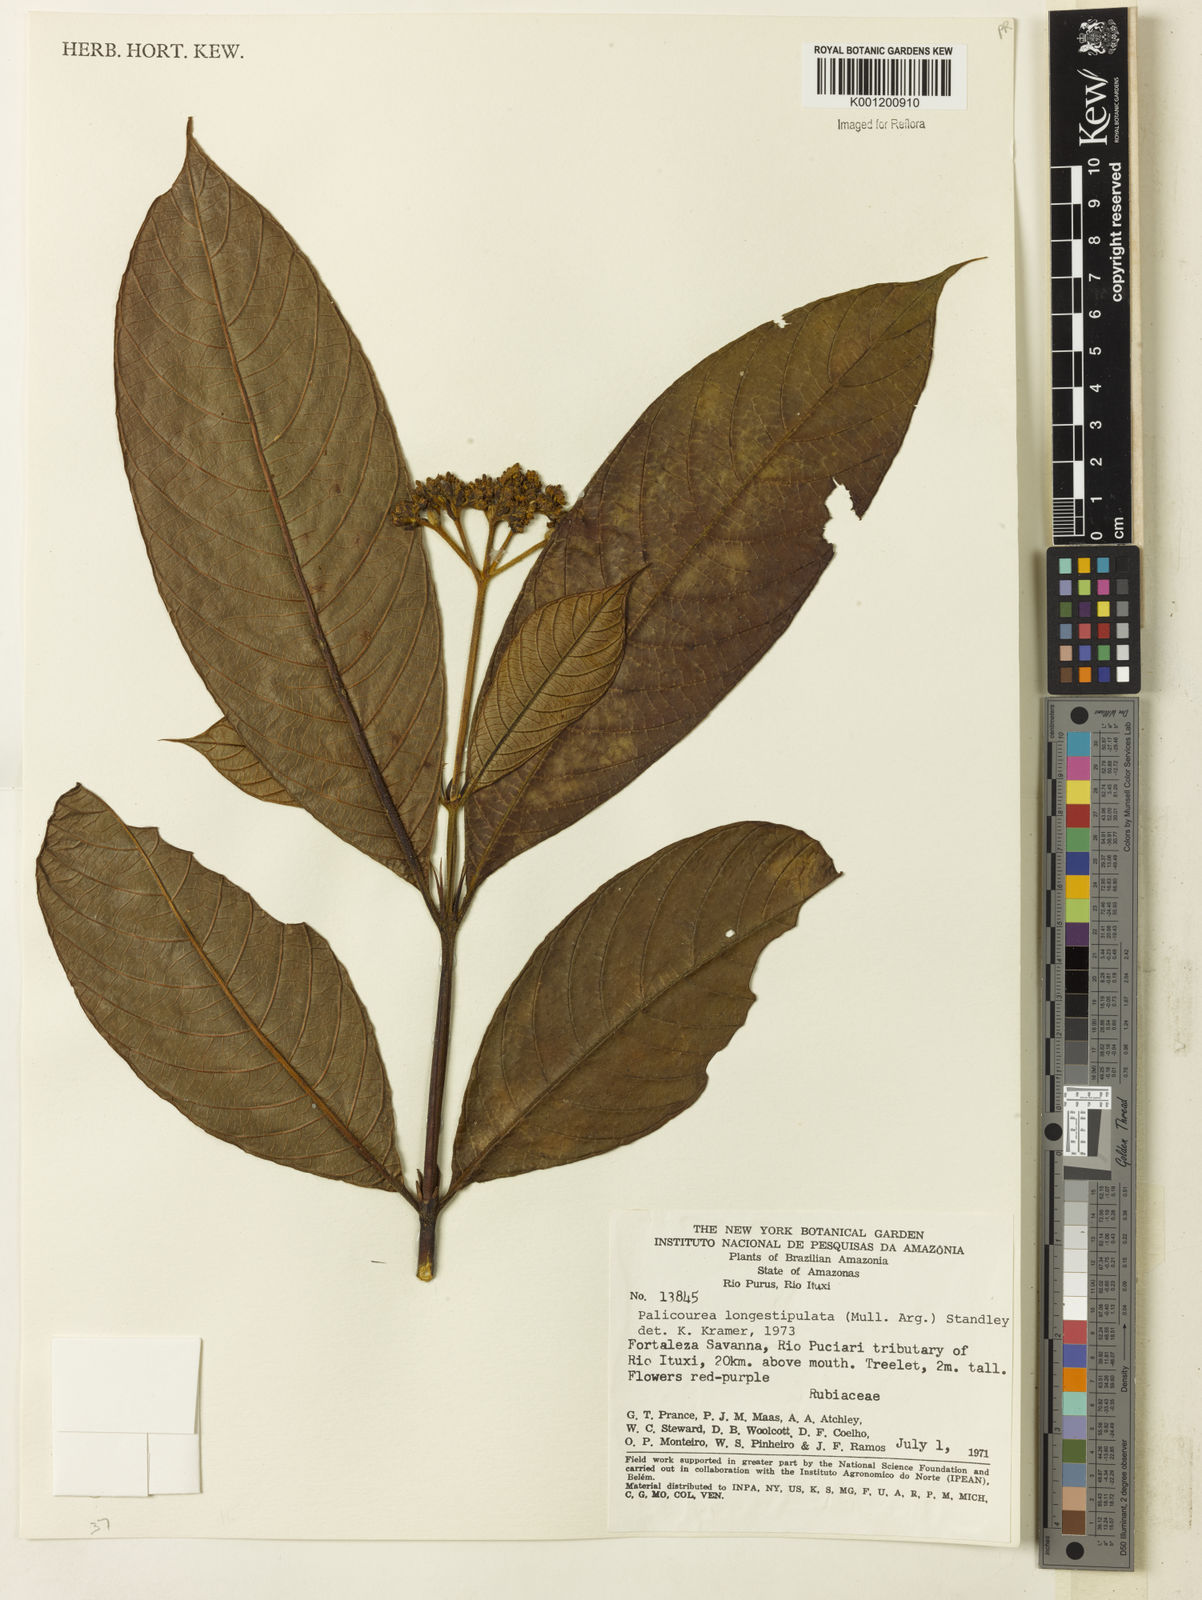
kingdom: Plantae
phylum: Tracheophyta
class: Magnoliopsida
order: Gentianales
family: Rubiaceae
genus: Palicourea
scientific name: Palicourea longistipulata
